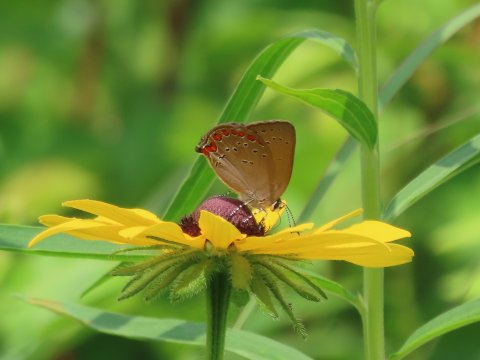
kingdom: Animalia
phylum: Arthropoda
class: Insecta
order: Lepidoptera
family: Lycaenidae
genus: Harkenclenus
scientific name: Harkenclenus titus
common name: Coral Hairstreak
